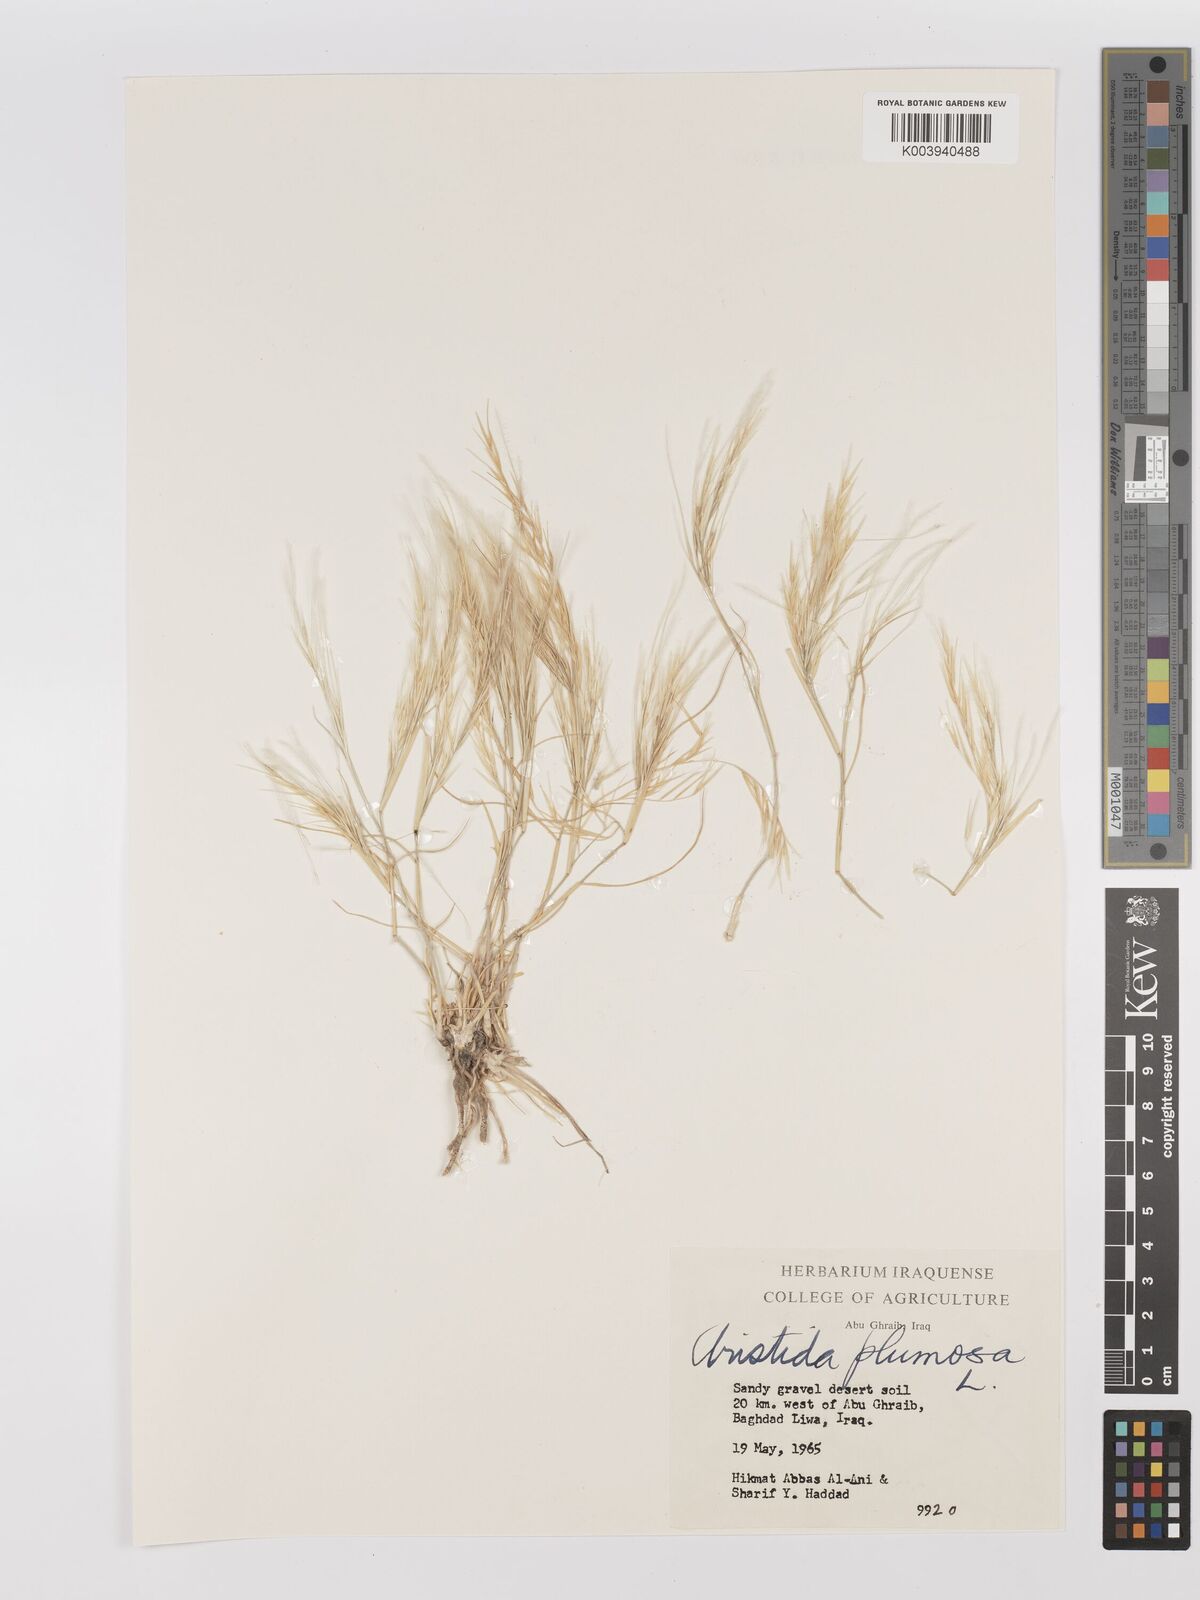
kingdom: Plantae
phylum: Tracheophyta
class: Liliopsida
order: Poales
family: Poaceae
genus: Stipagrostis
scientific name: Stipagrostis plumosa
